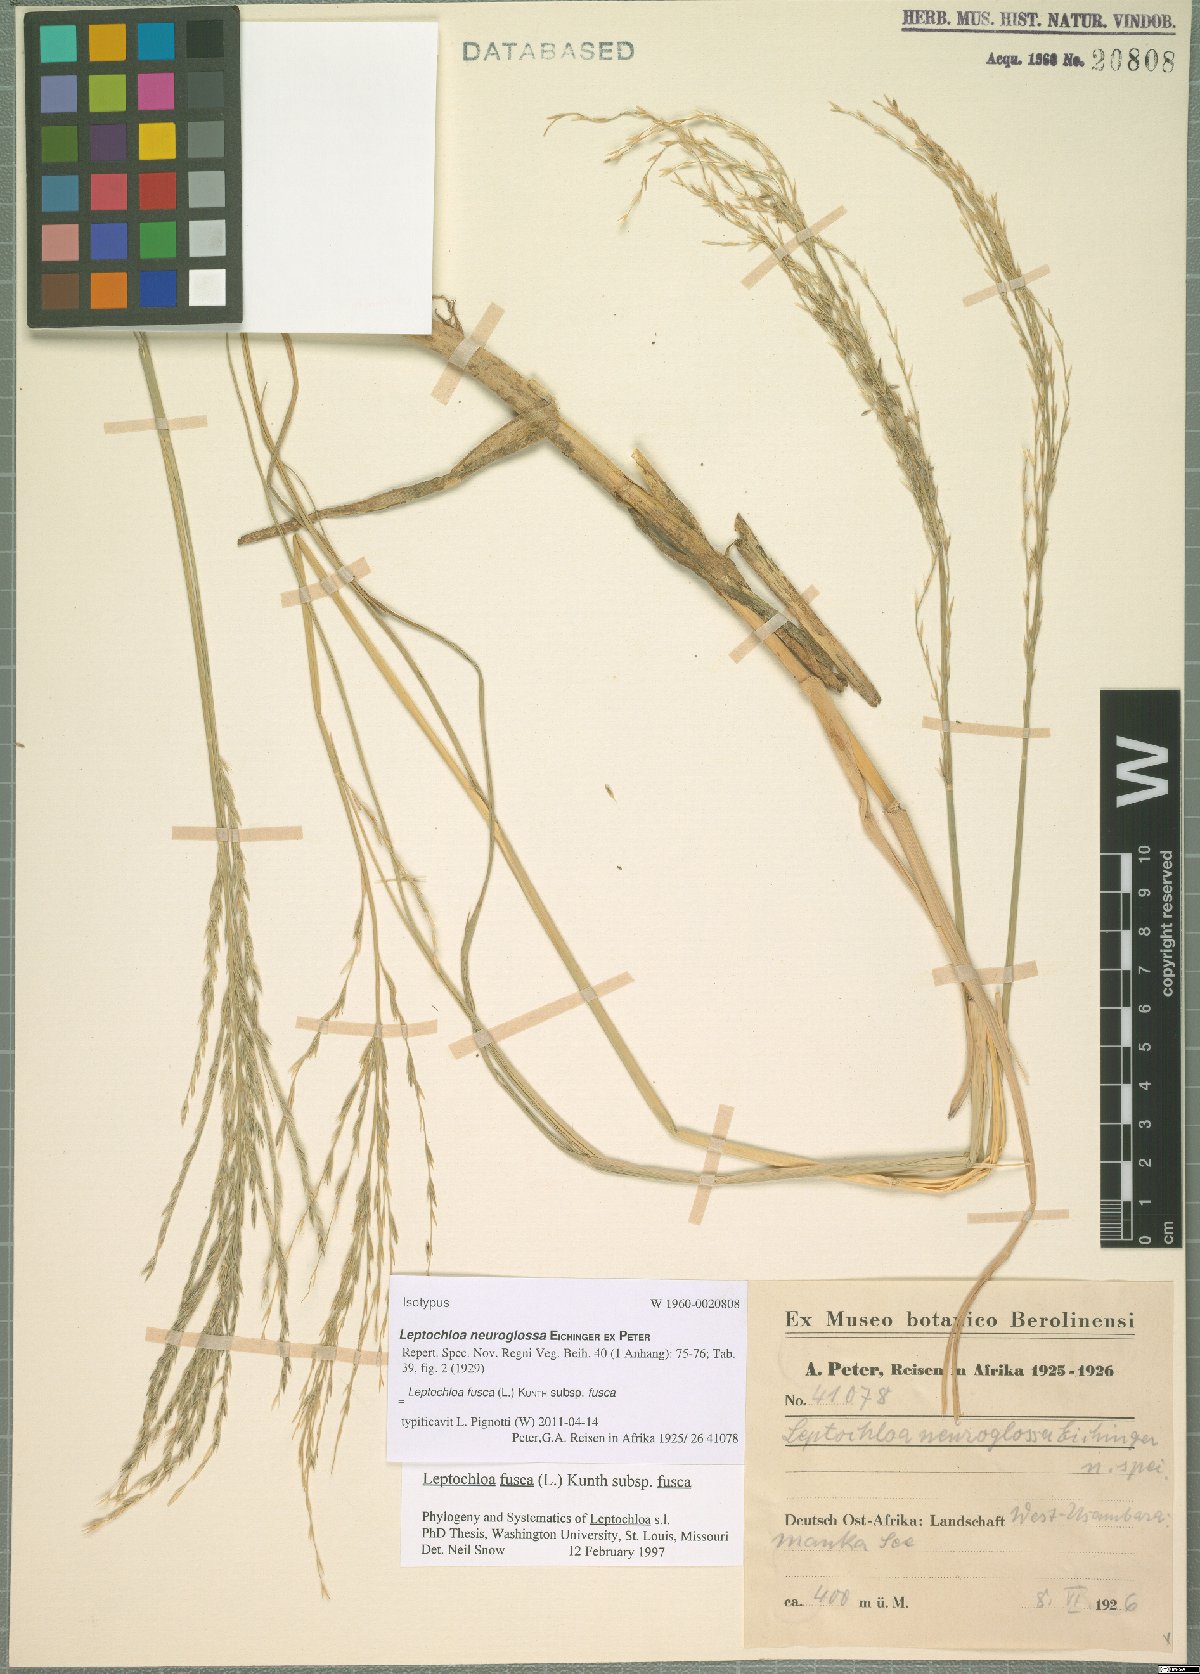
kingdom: Plantae
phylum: Tracheophyta
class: Liliopsida
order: Poales
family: Poaceae
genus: Diplachne
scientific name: Diplachne fusca
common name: Brown beetle grass
